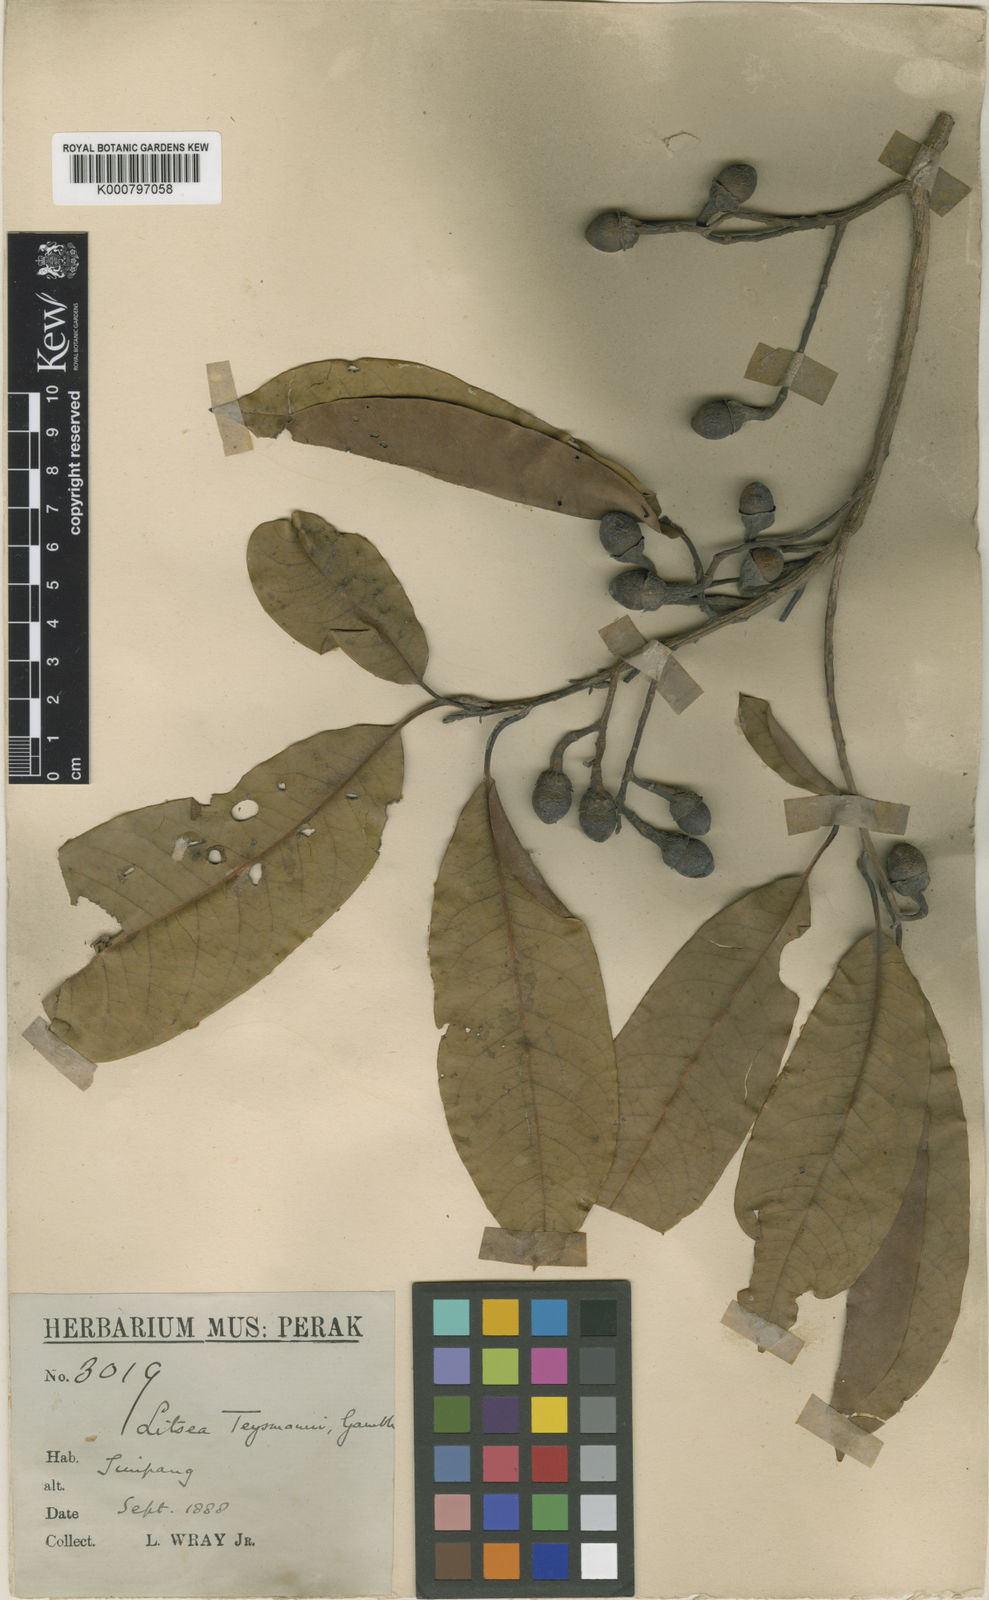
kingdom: Plantae
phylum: Tracheophyta
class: Magnoliopsida
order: Laurales
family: Lauraceae
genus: Litsea
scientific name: Litsea machilifolia
